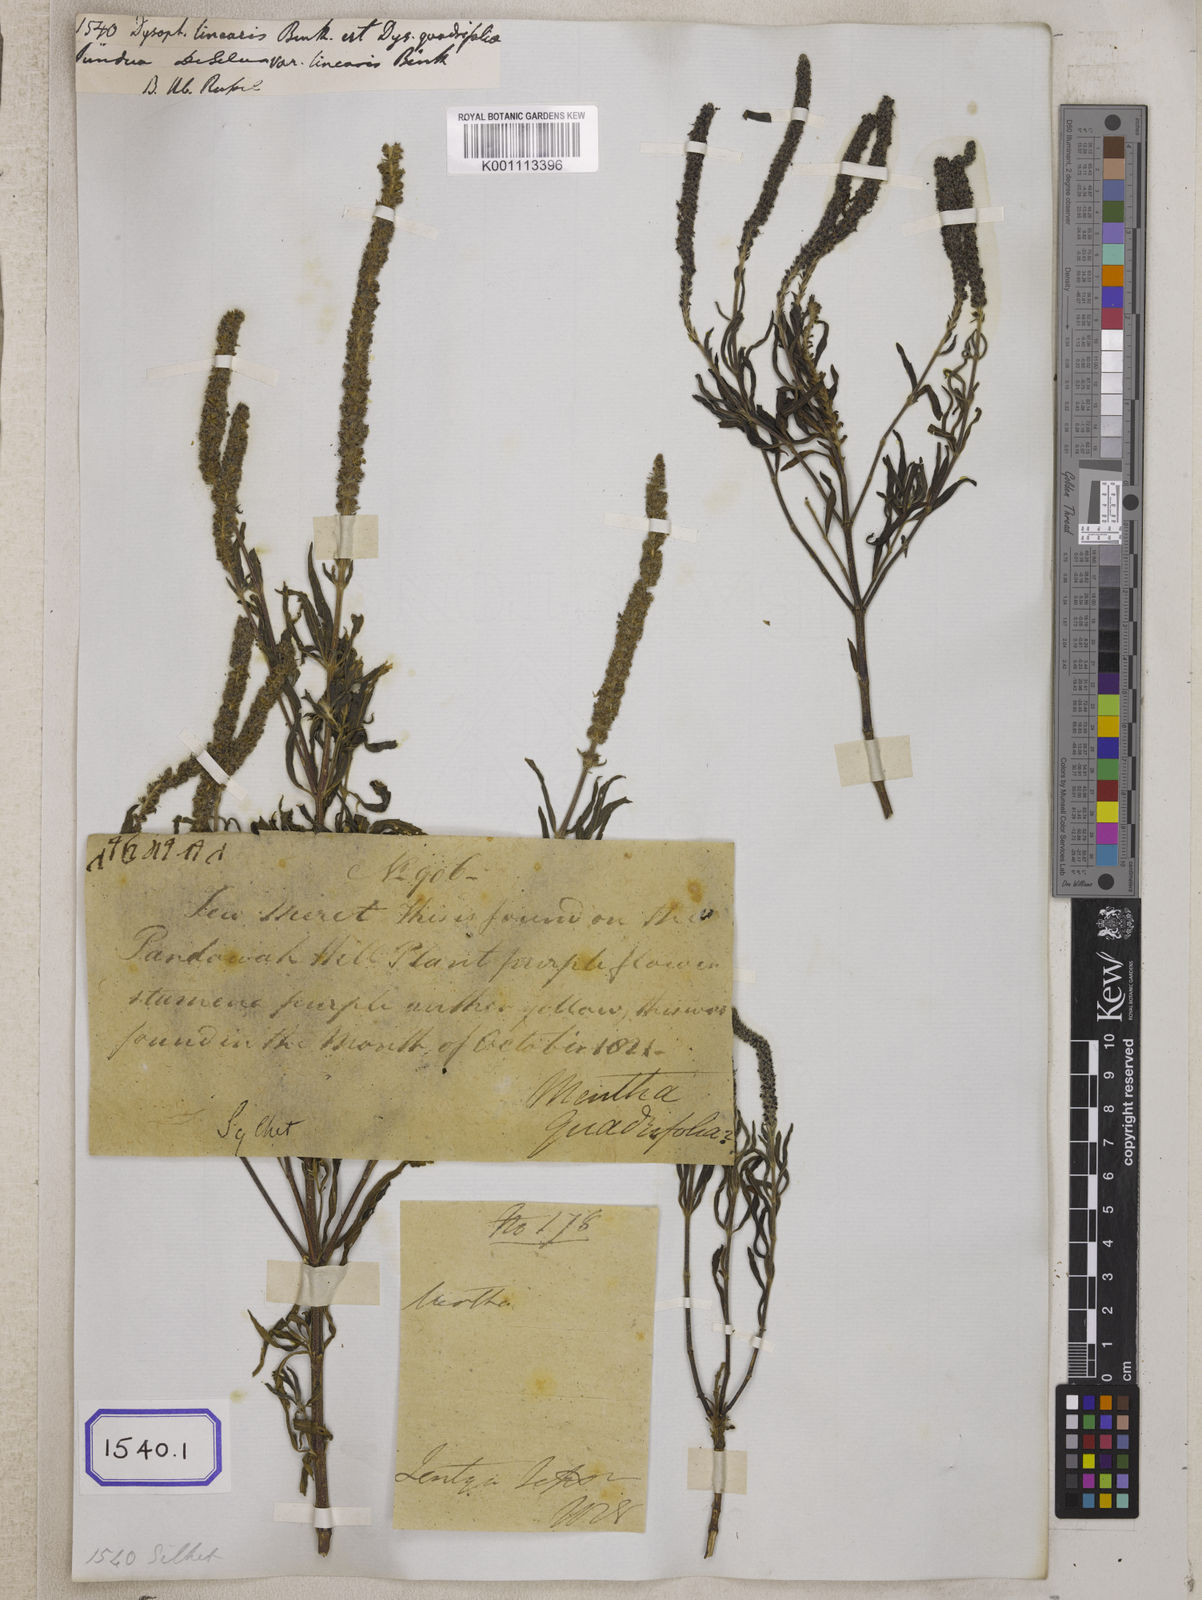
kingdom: Plantae
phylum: Tracheophyta
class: Magnoliopsida
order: Lamiales
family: Lamiaceae
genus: Pogostemon
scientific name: Pogostemon linearis
